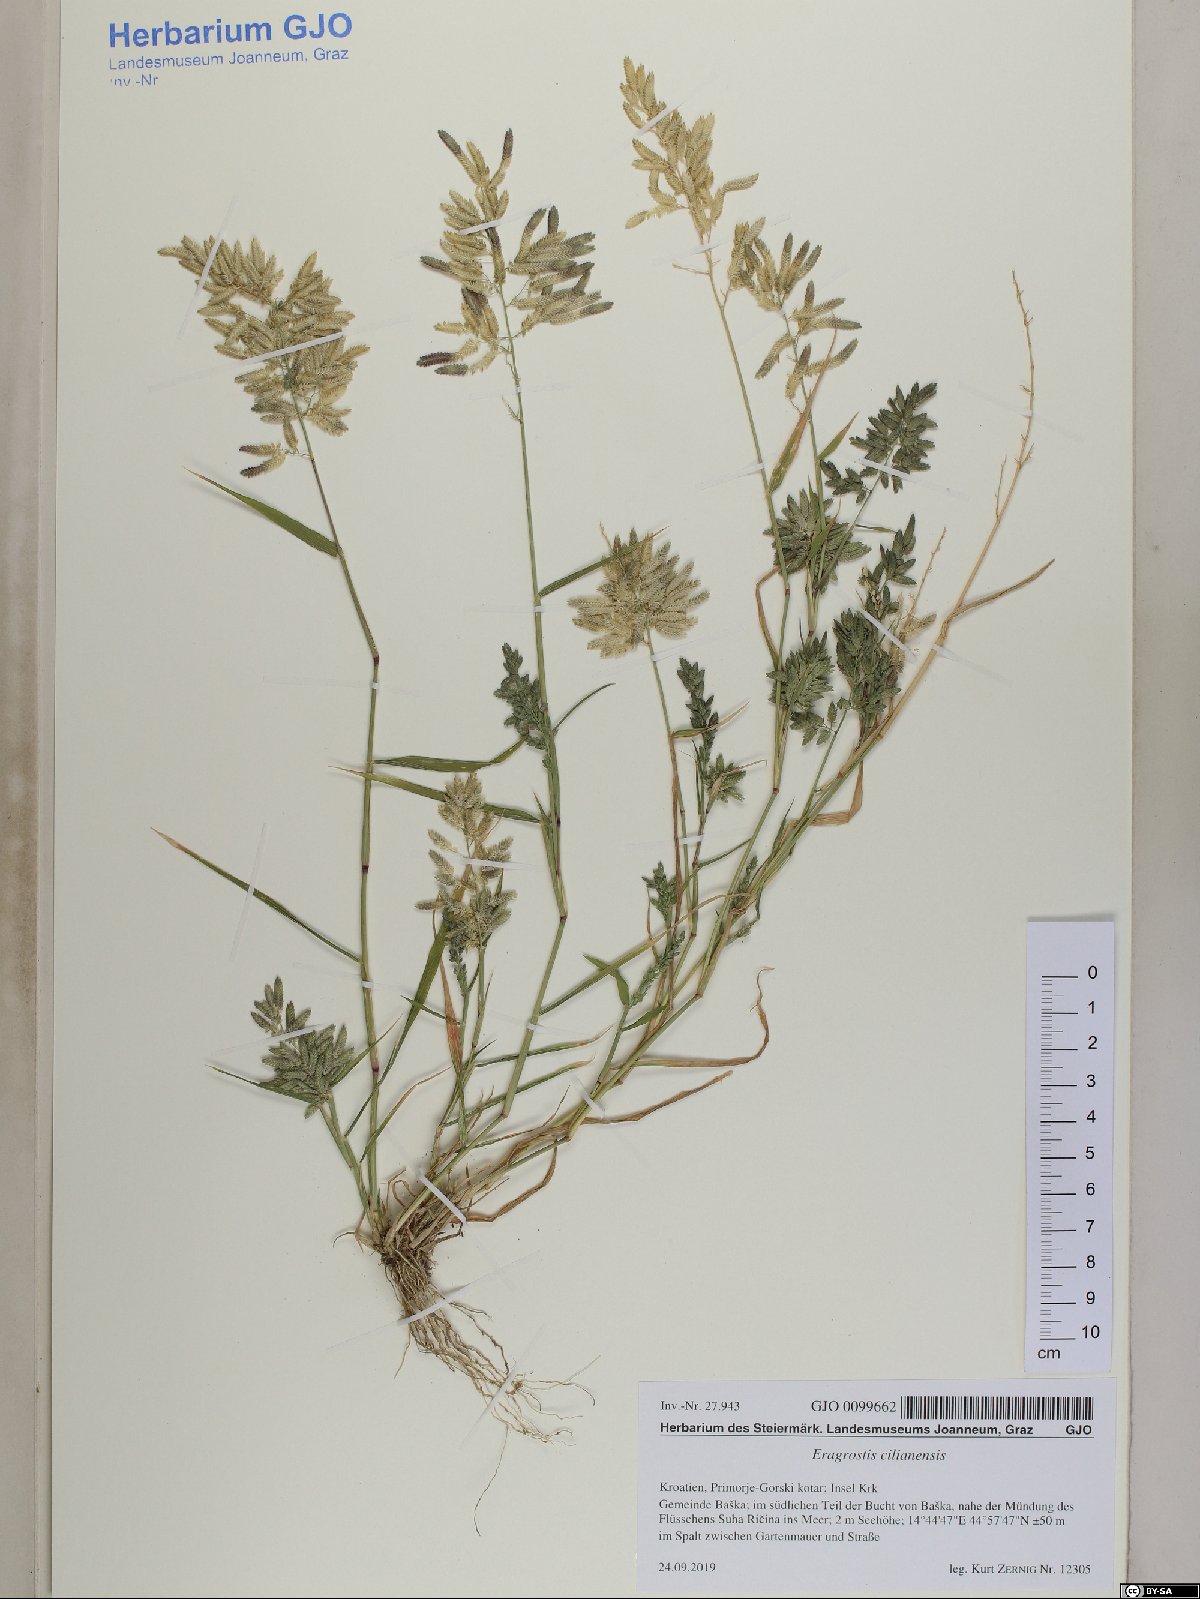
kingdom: Plantae
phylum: Tracheophyta
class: Liliopsida
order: Poales
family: Poaceae
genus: Eragrostis
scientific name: Eragrostis cilianensis
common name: Stinkgrass
